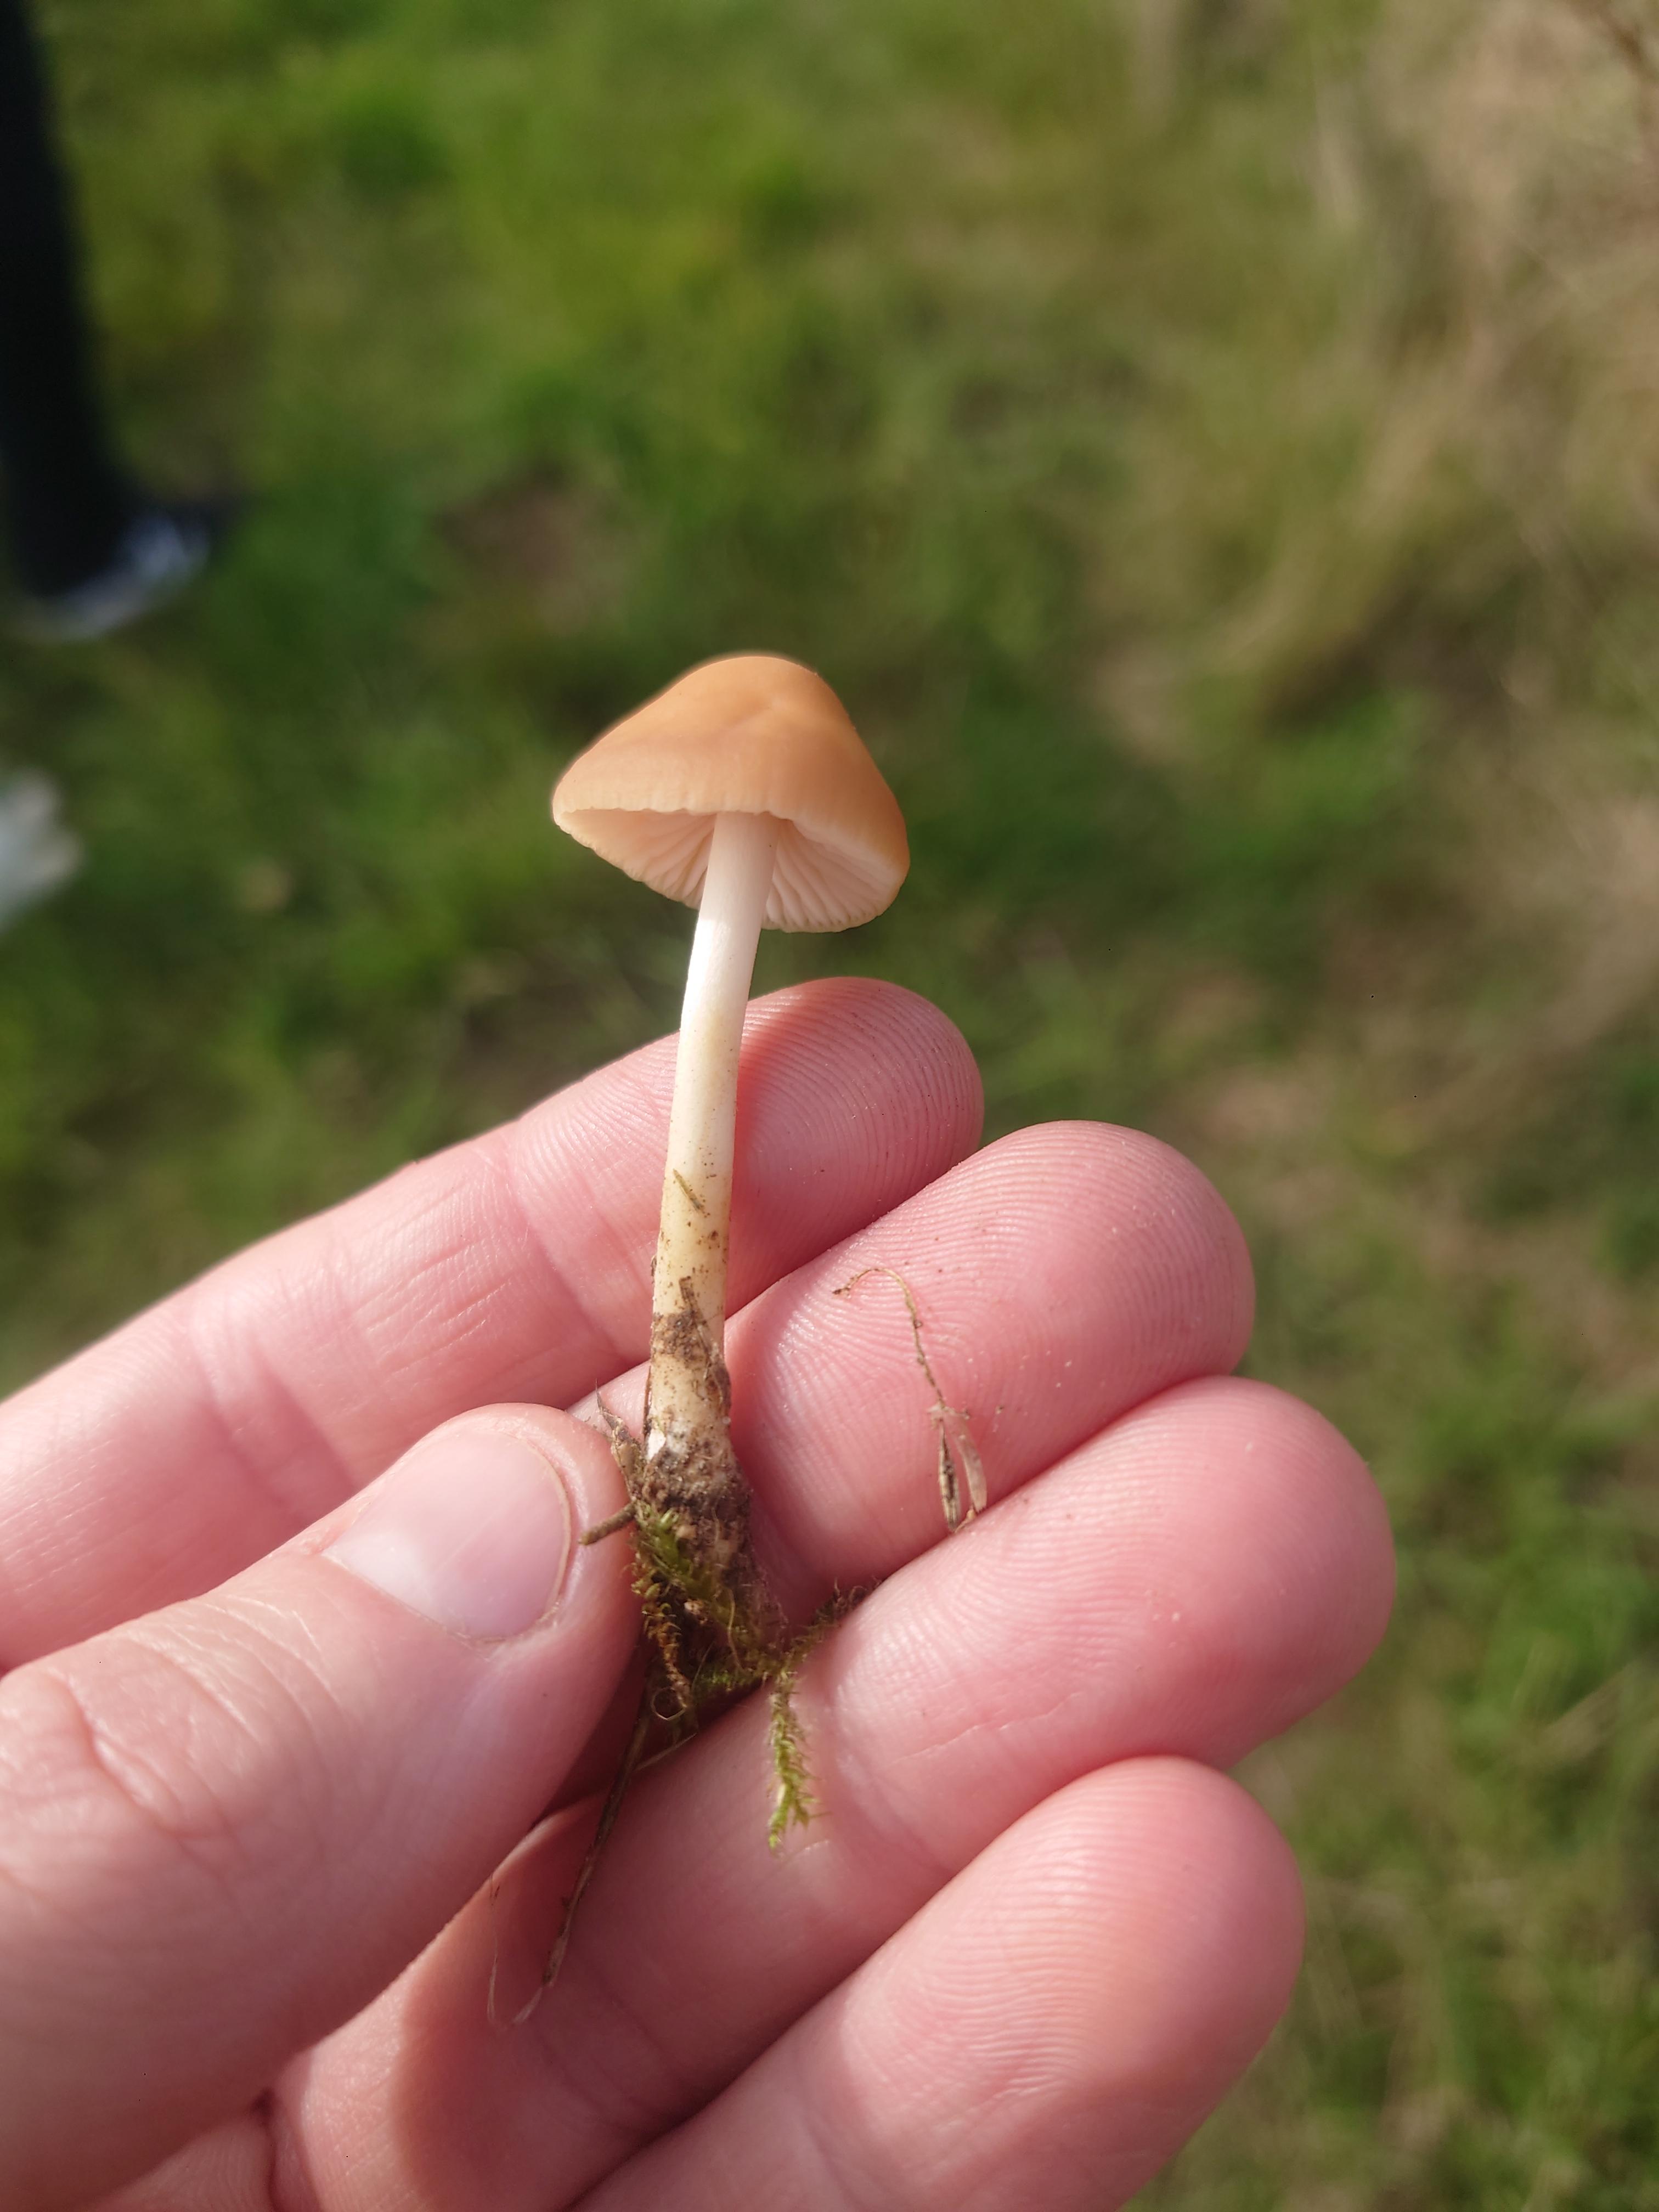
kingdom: Fungi
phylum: Basidiomycota
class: Agaricomycetes
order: Agaricales
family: Marasmiaceae
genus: Marasmius
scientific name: Marasmius oreades
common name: elledans-bruskhat
